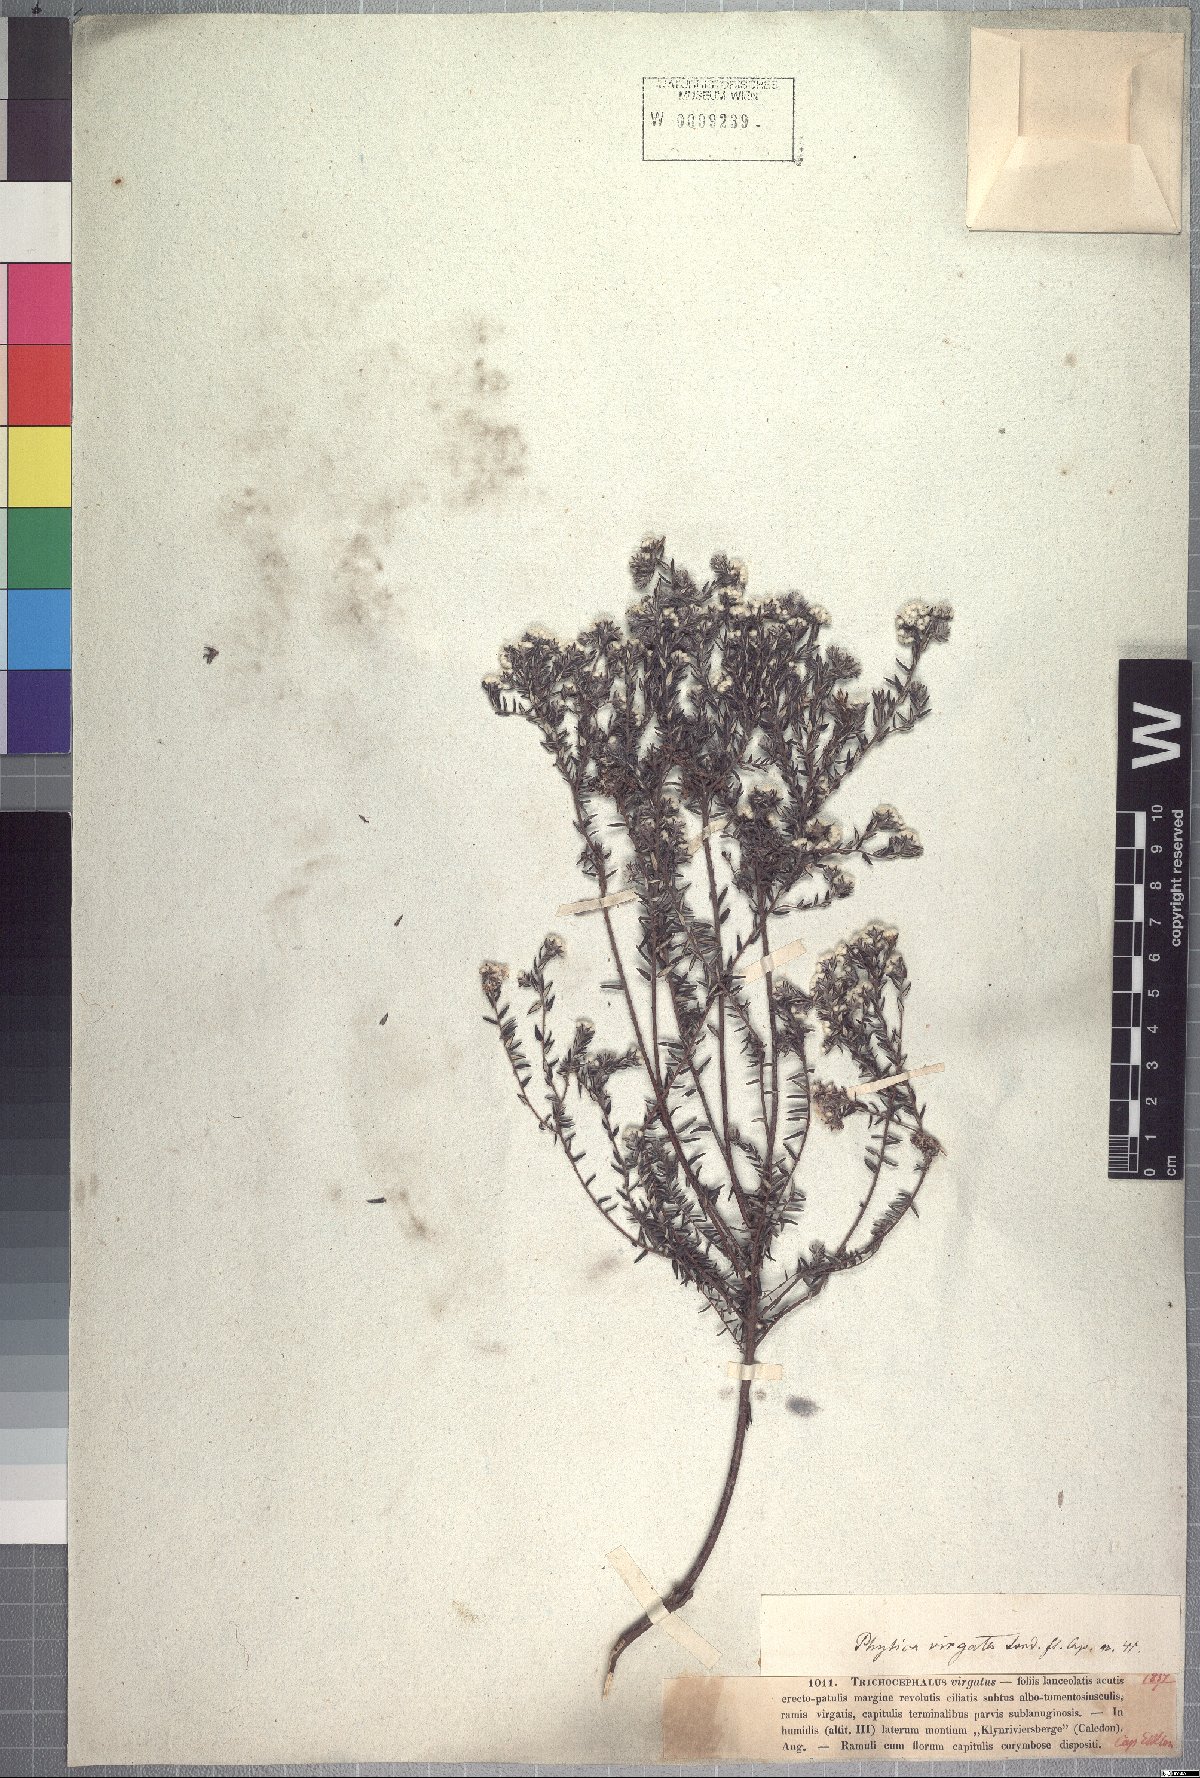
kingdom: Plantae
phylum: Tracheophyta
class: Magnoliopsida
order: Rosales
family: Rhamnaceae
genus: Phylica
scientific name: Phylica virgata
